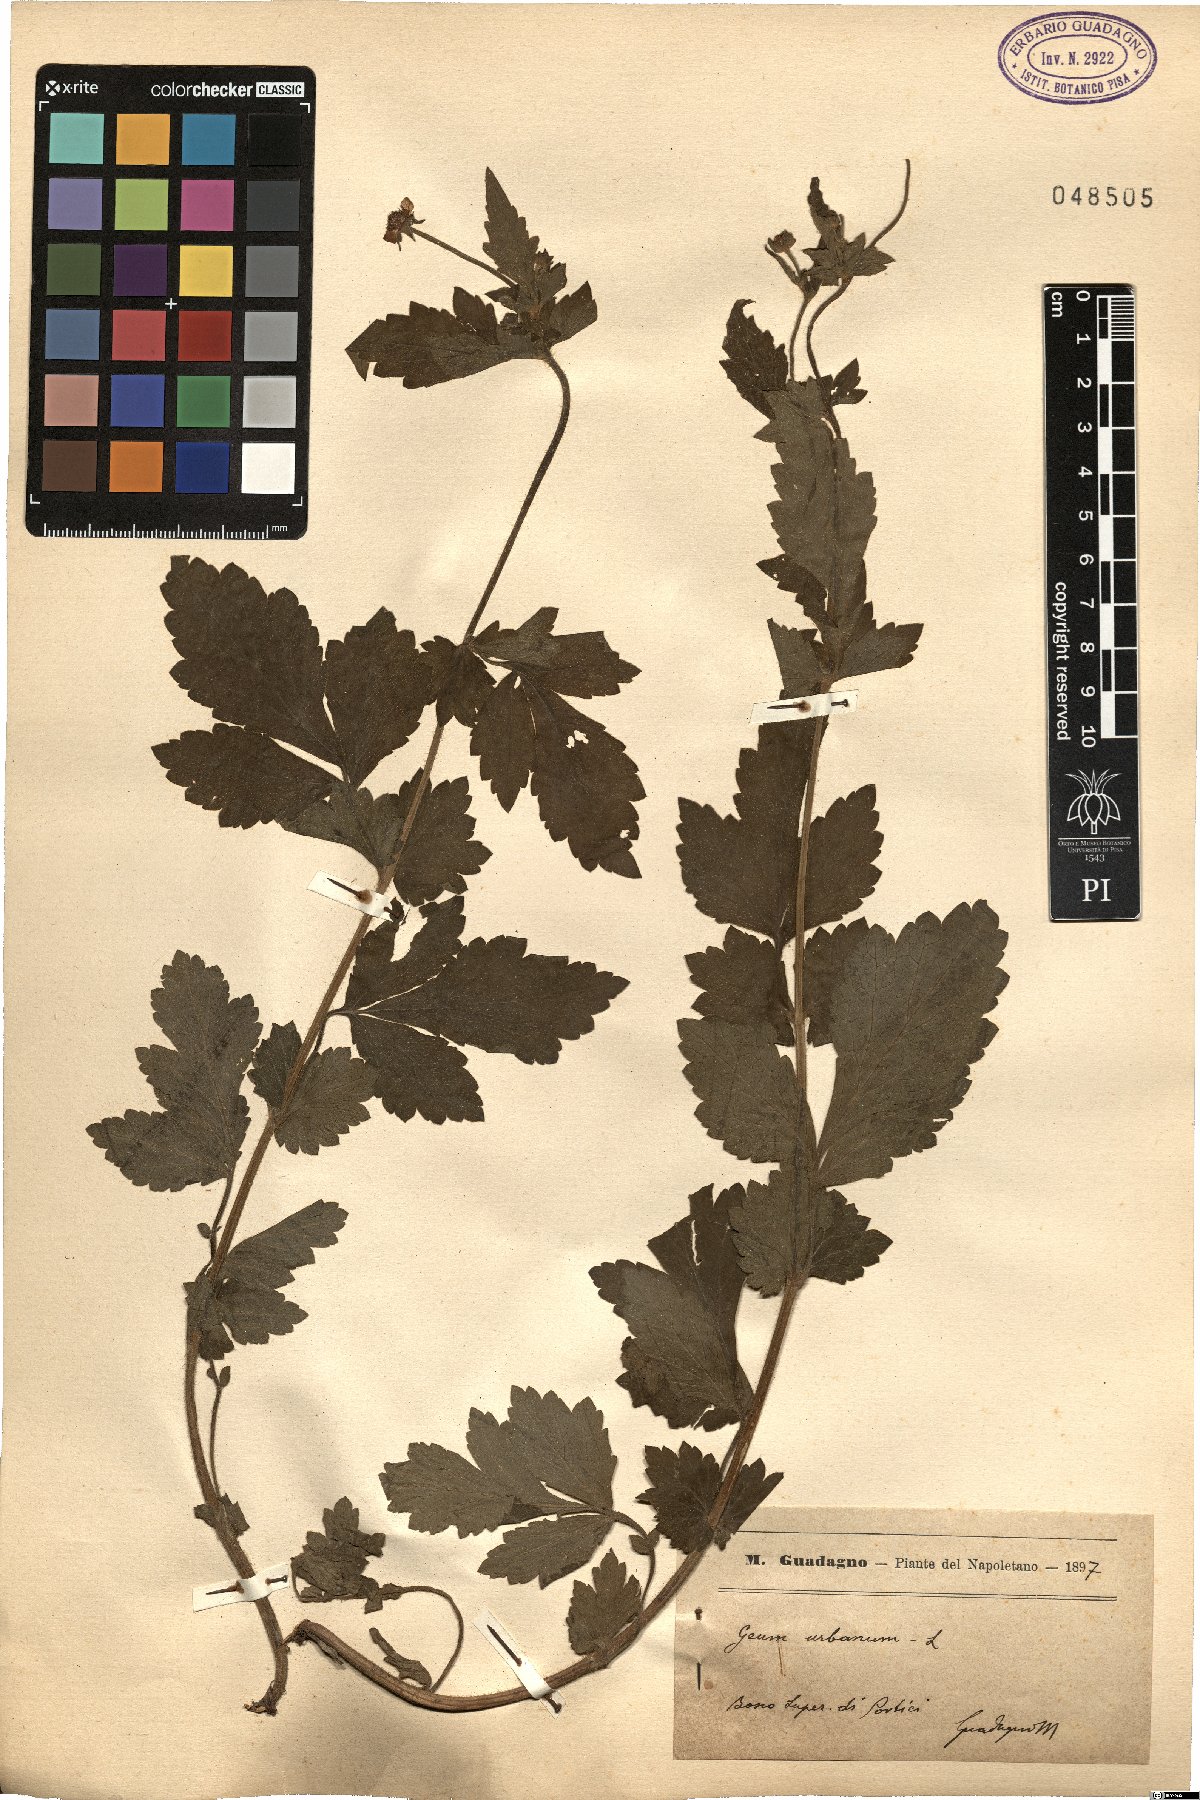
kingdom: Plantae
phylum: Tracheophyta
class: Magnoliopsida
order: Rosales
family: Rosaceae
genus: Geum
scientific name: Geum urbanum
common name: Wood avens
